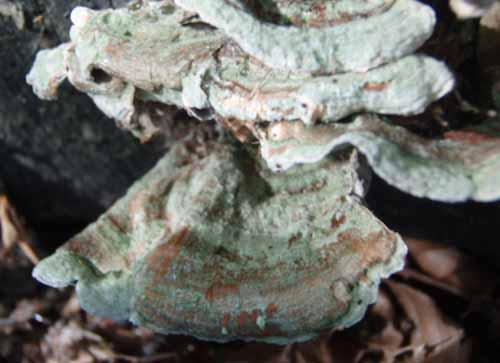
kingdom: Fungi
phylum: Basidiomycota
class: Agaricomycetes
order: Russulales
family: Stereaceae
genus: Stereum
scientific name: Stereum subtomentosum
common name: smuk lædersvamp
